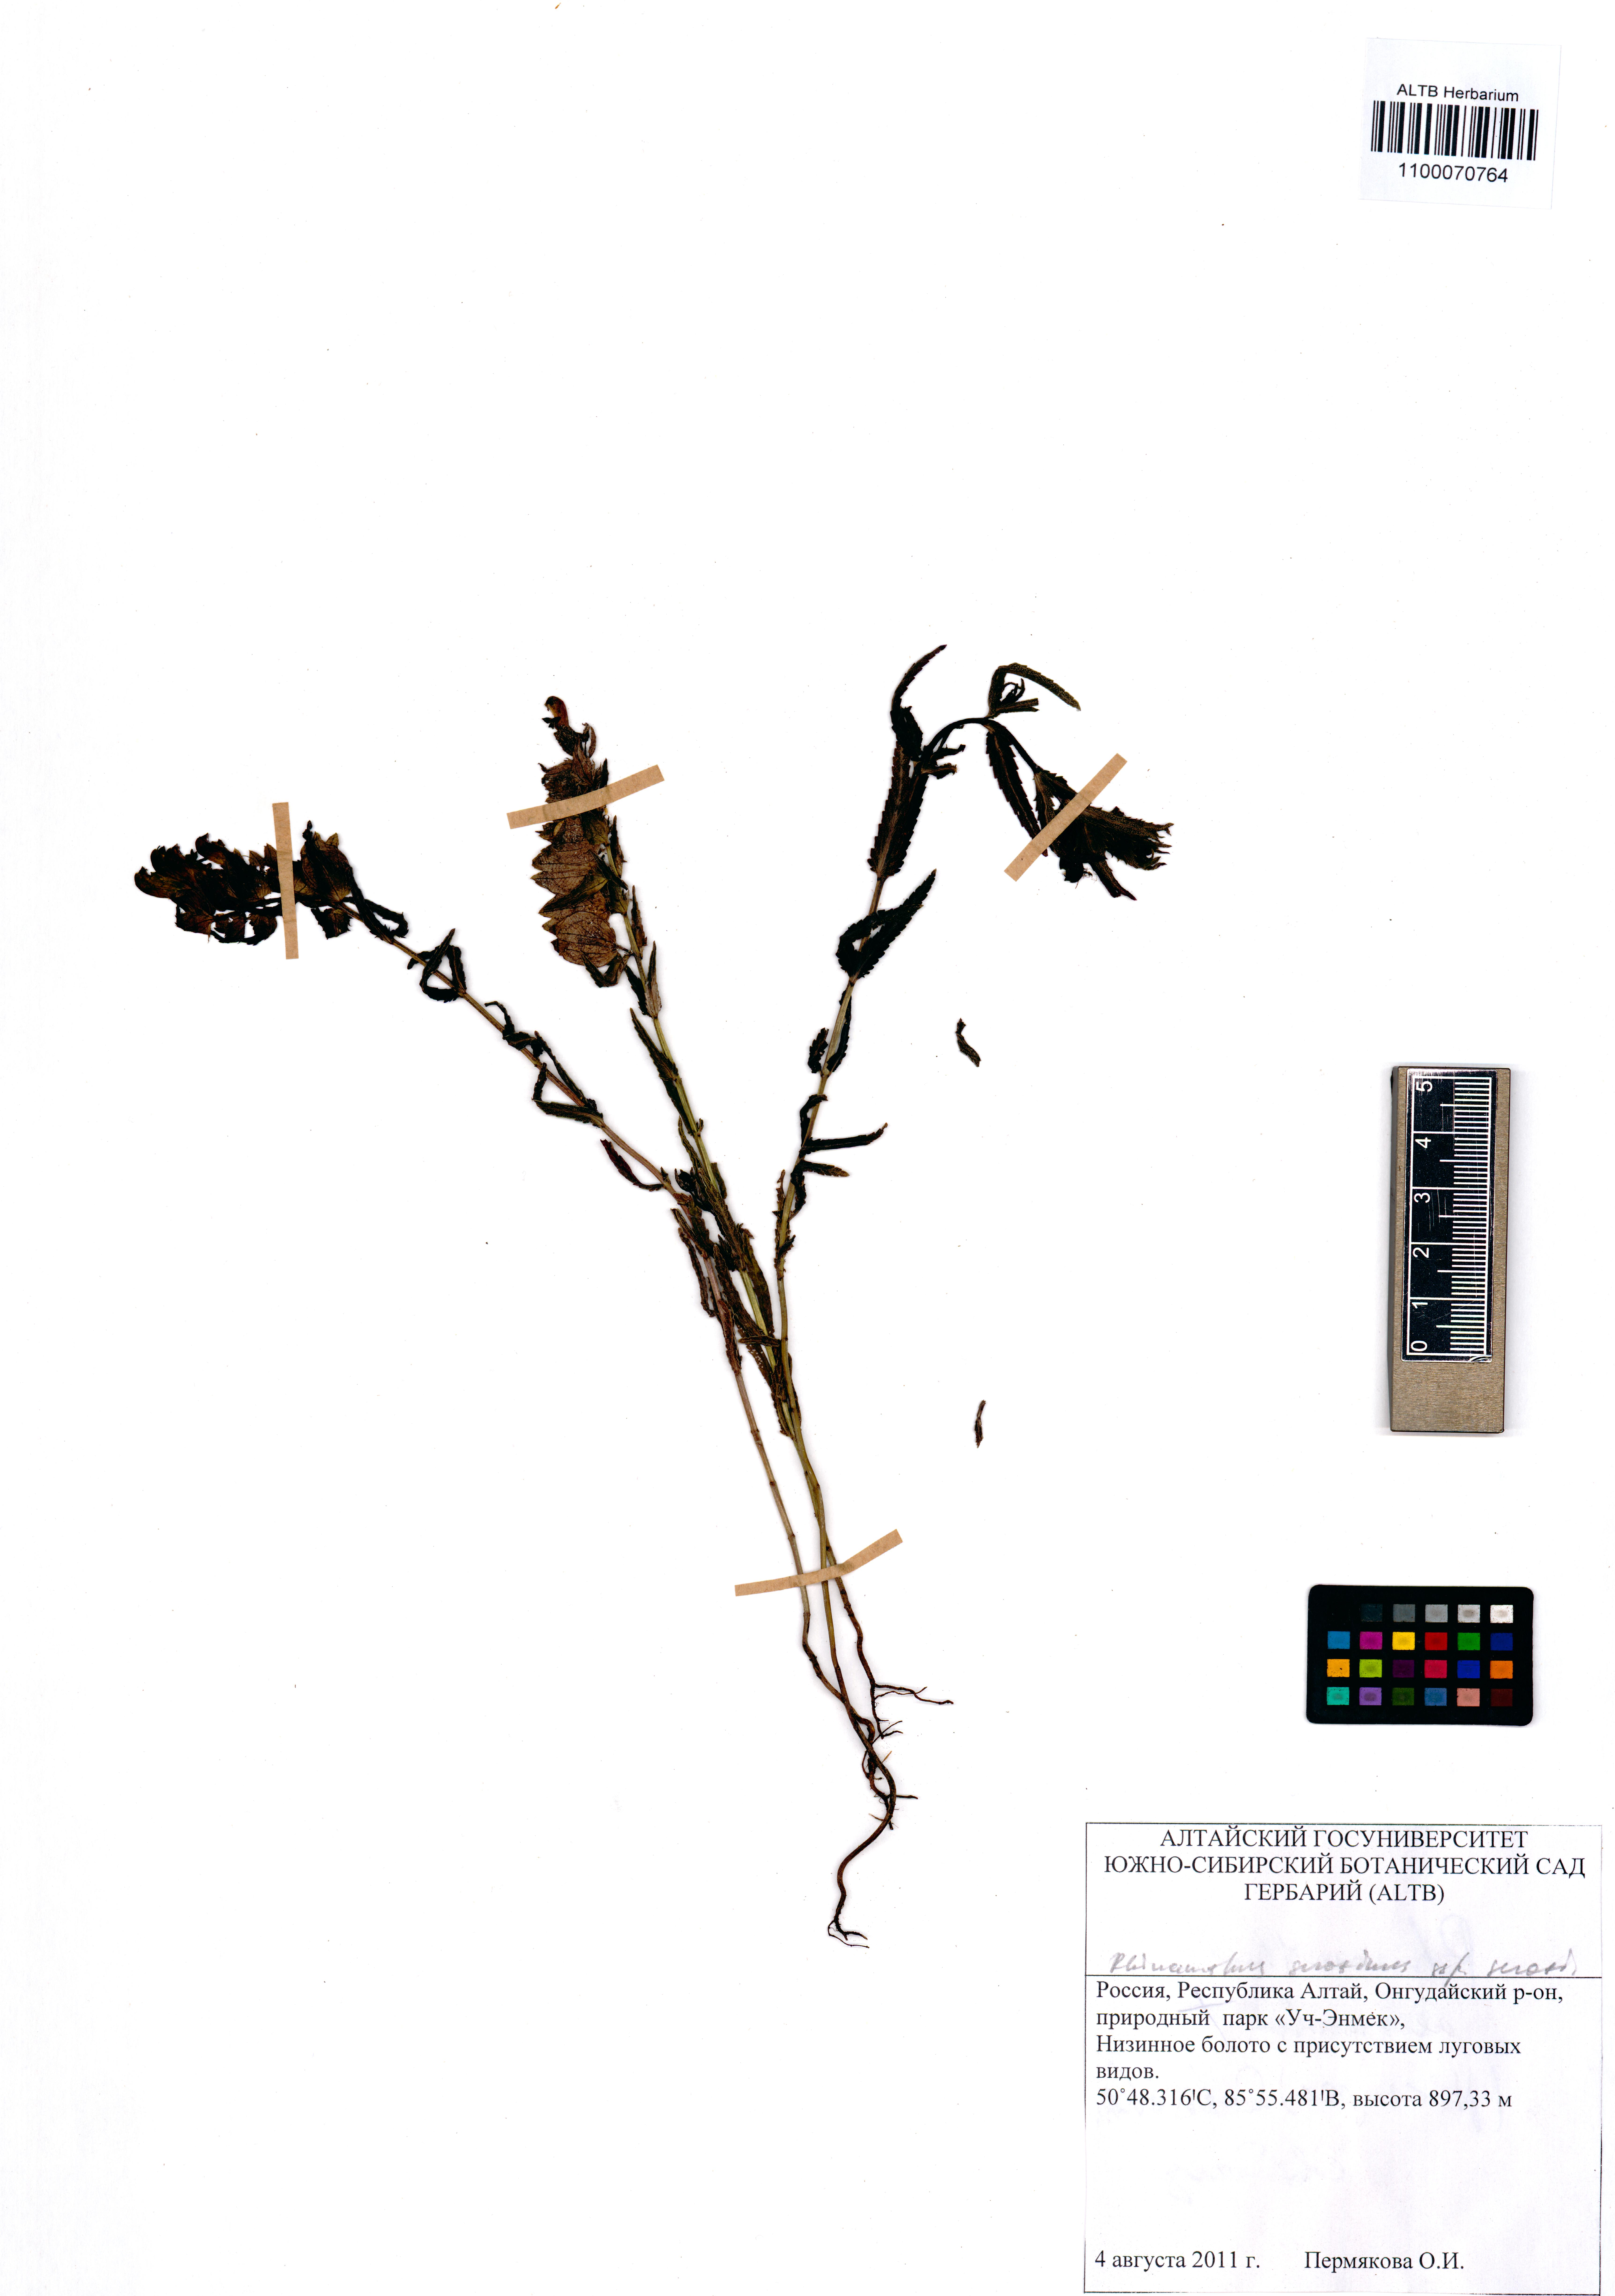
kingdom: Plantae
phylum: Tracheophyta
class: Magnoliopsida
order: Lamiales
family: Orobanchaceae
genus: Rhinanthus
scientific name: Rhinanthus serotinus
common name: Late-flowering yellow rattle
